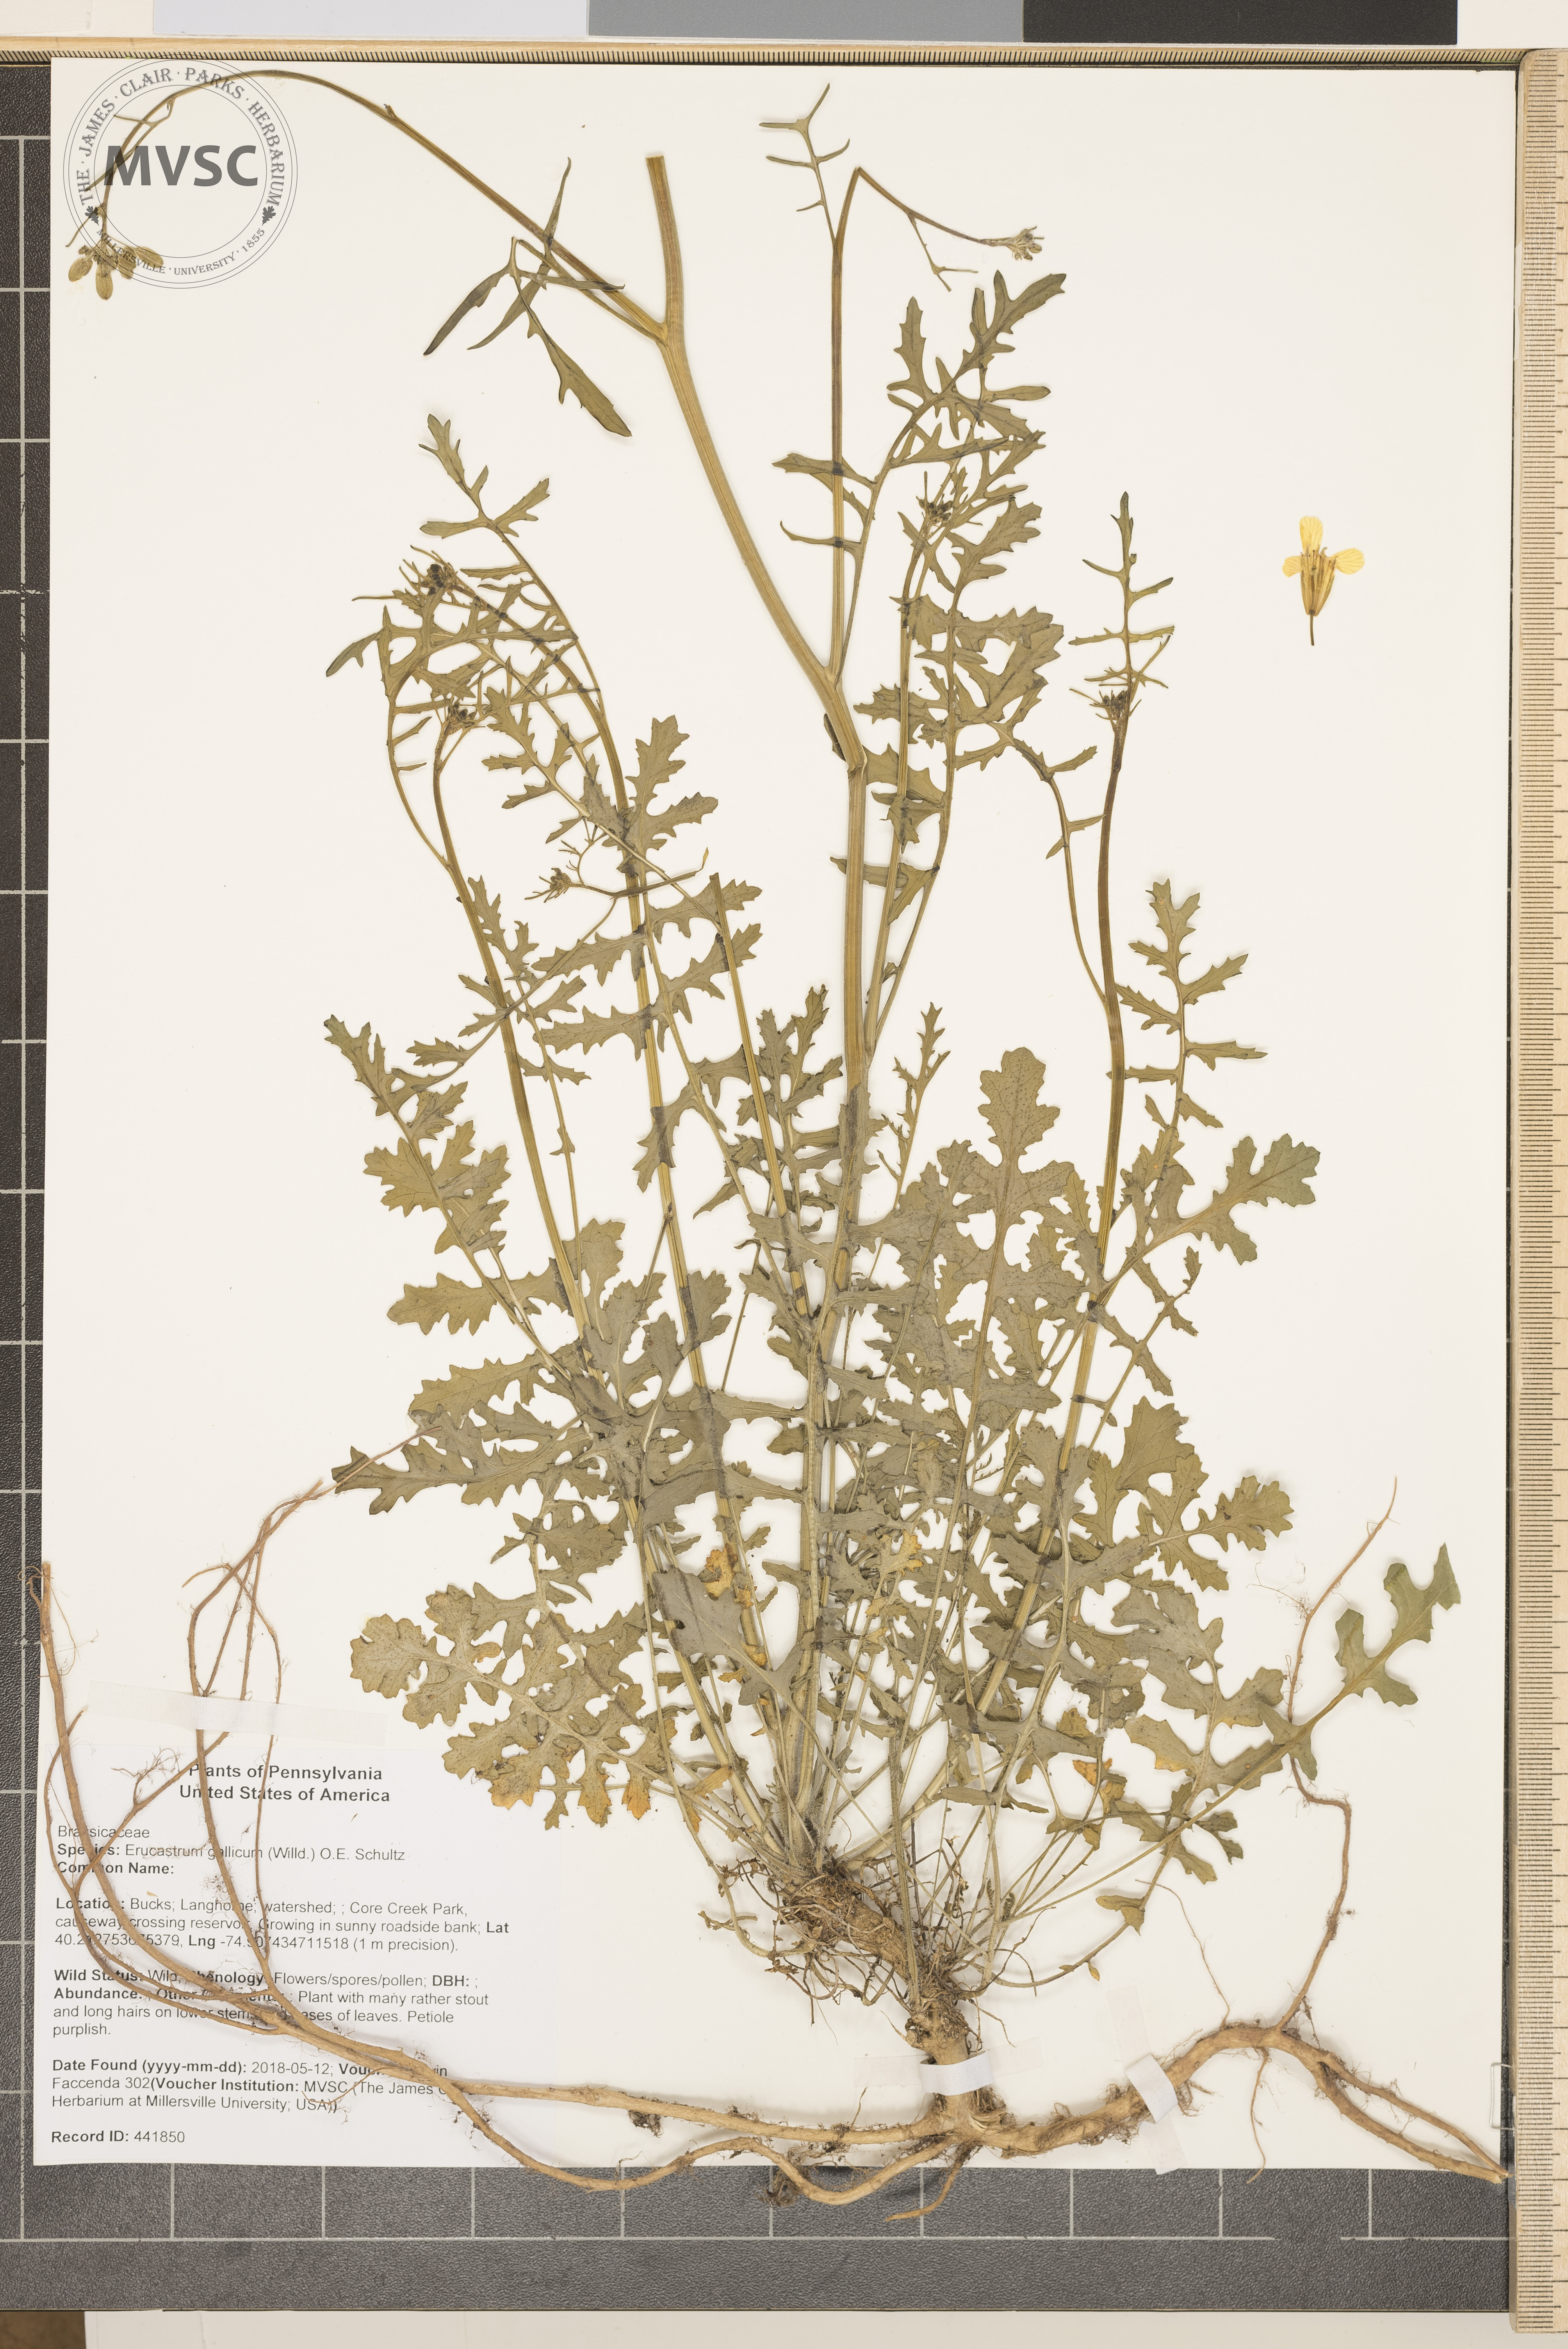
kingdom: Plantae
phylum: Tracheophyta
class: Magnoliopsida
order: Brassicales
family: Brassicaceae
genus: Erucastrum
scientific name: Erucastrum gallicum
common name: Hairy rocket
